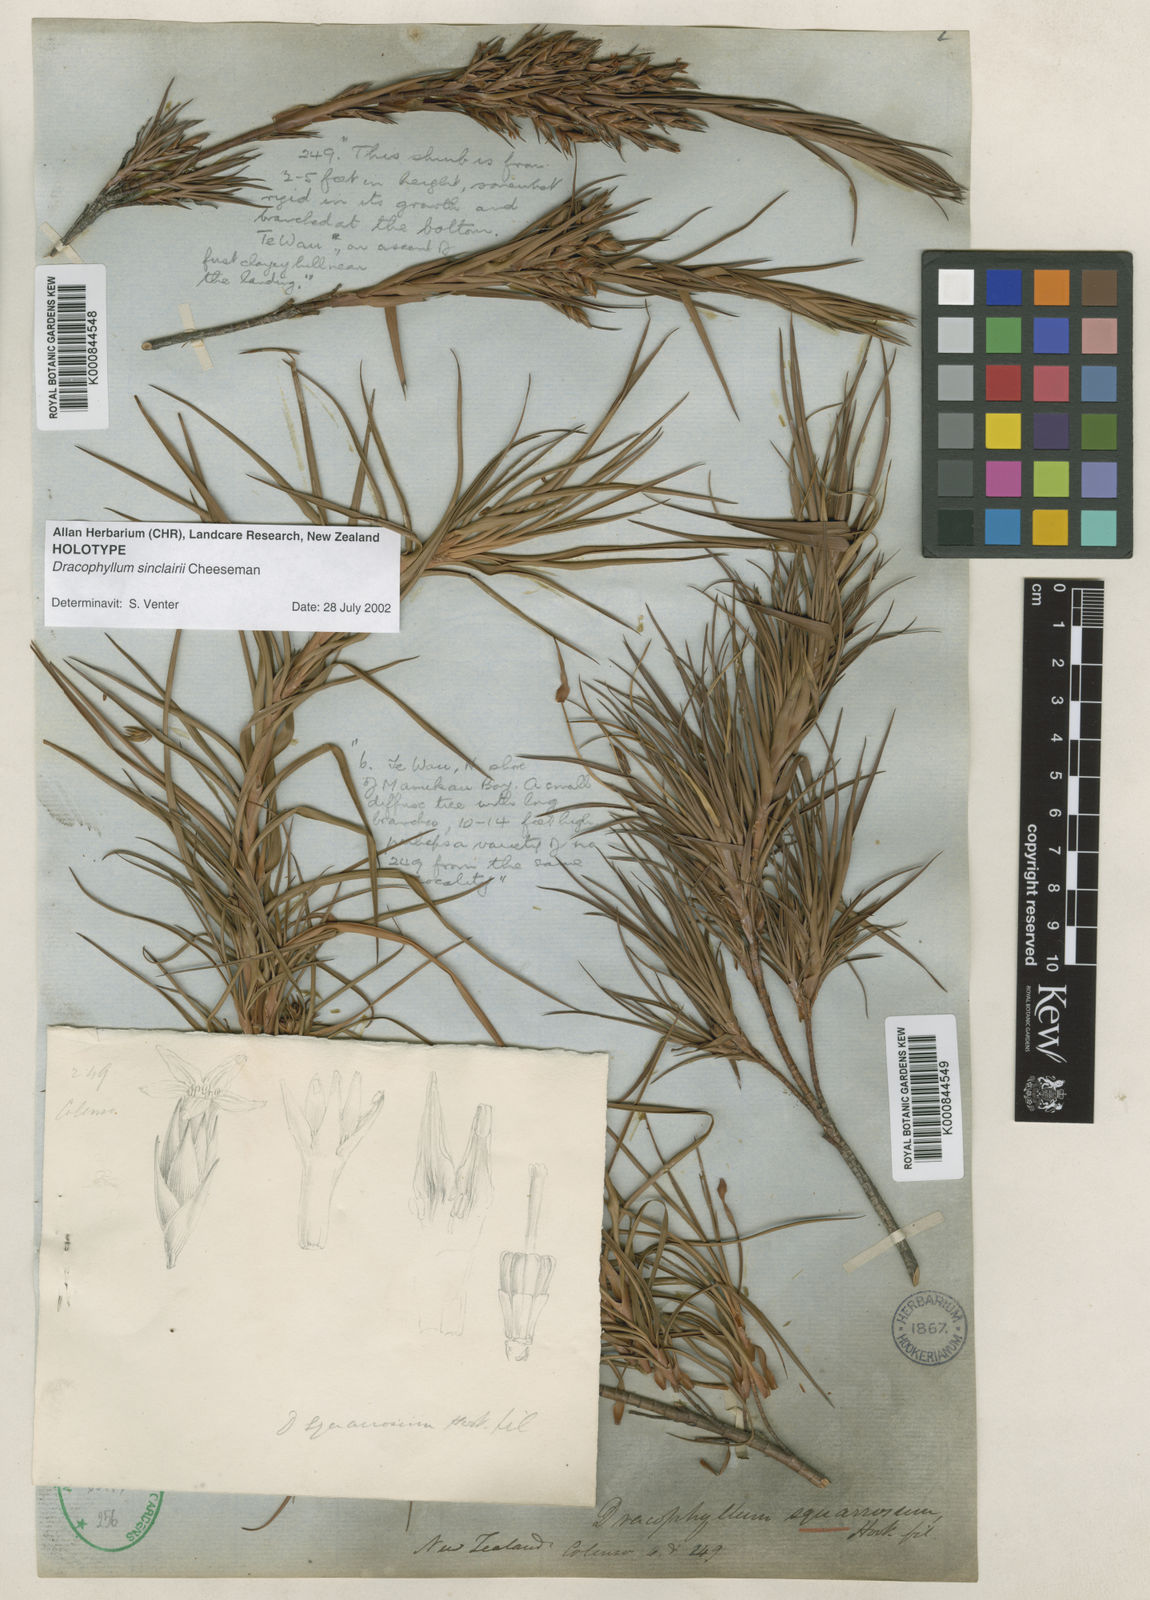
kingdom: Plantae
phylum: Tracheophyta
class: Magnoliopsida
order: Ericales
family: Ericaceae
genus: Dracophyllum
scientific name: Dracophyllum sinclairii
